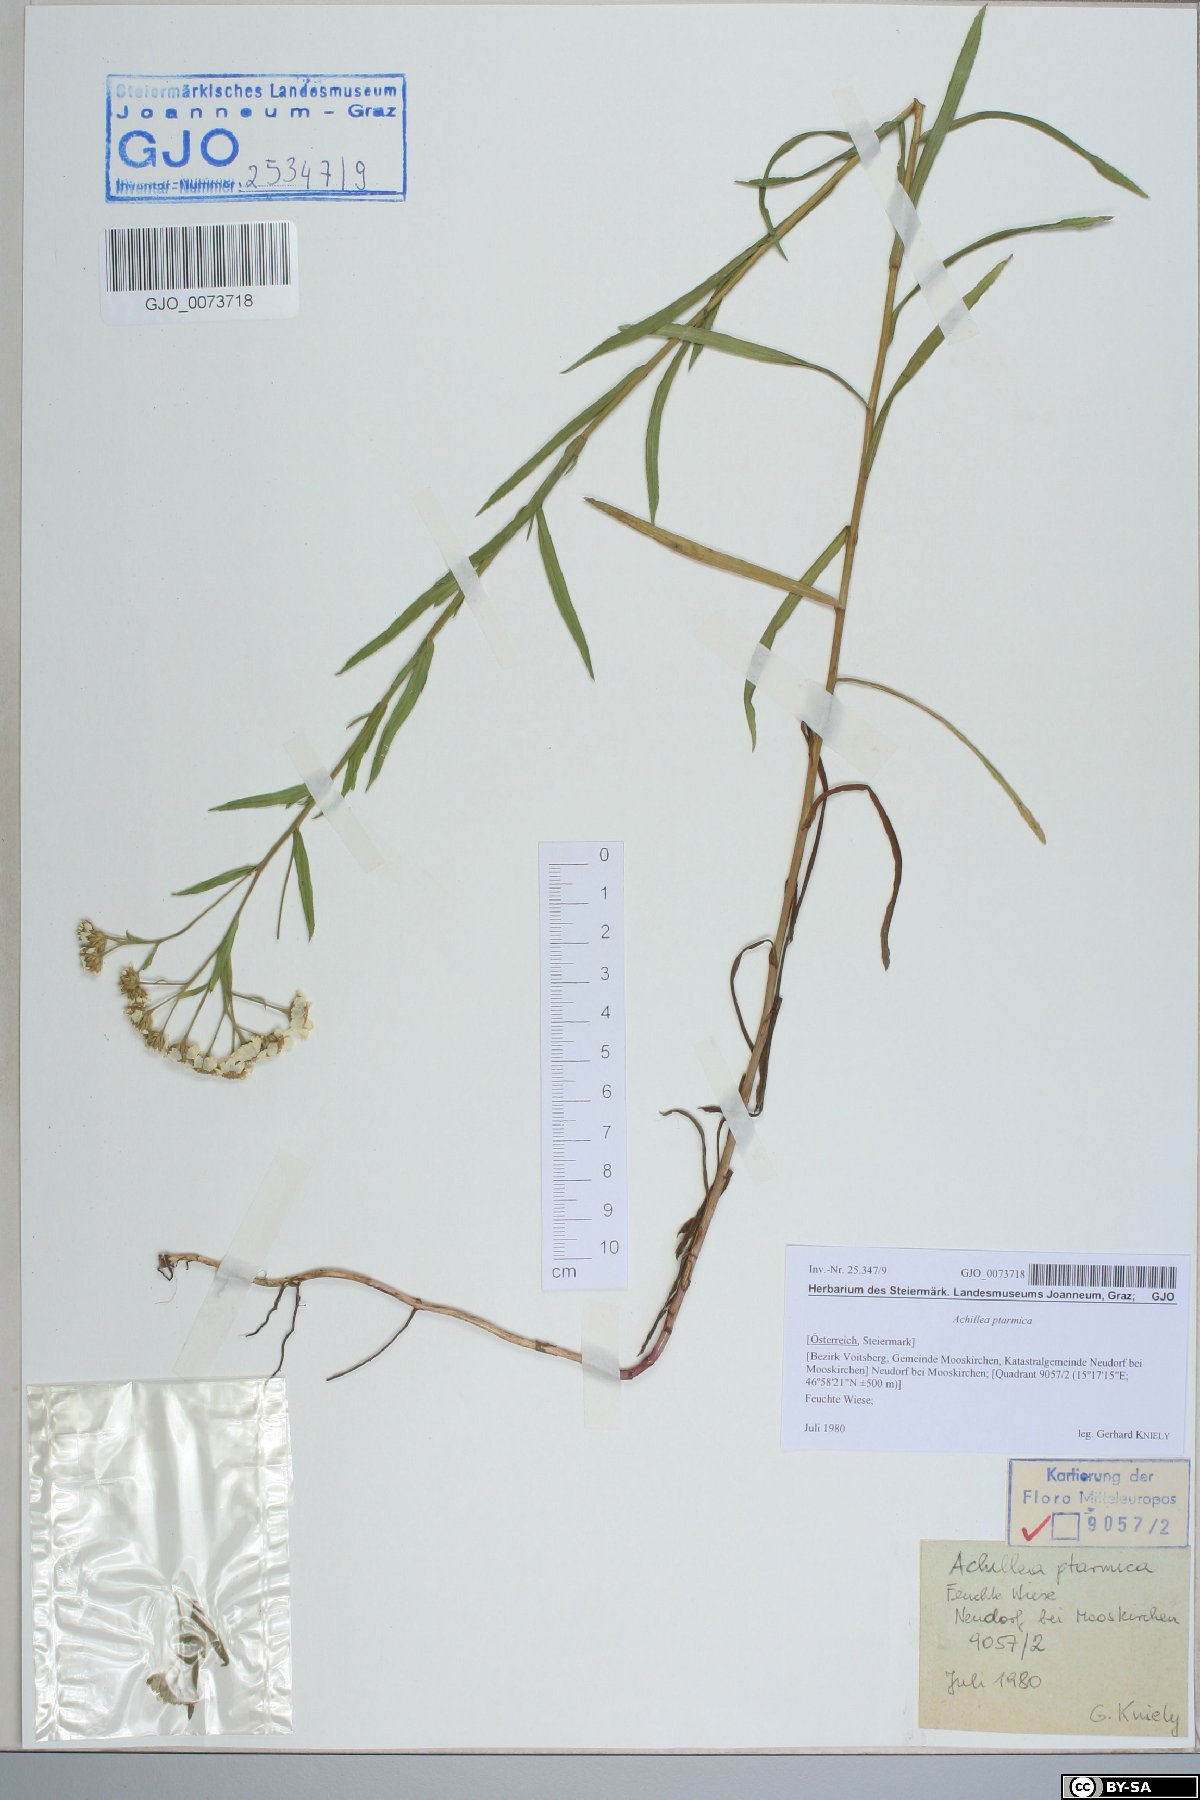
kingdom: Plantae
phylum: Tracheophyta
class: Magnoliopsida
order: Asterales
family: Asteraceae
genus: Achillea
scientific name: Achillea ptarmica
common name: Sneezeweed
